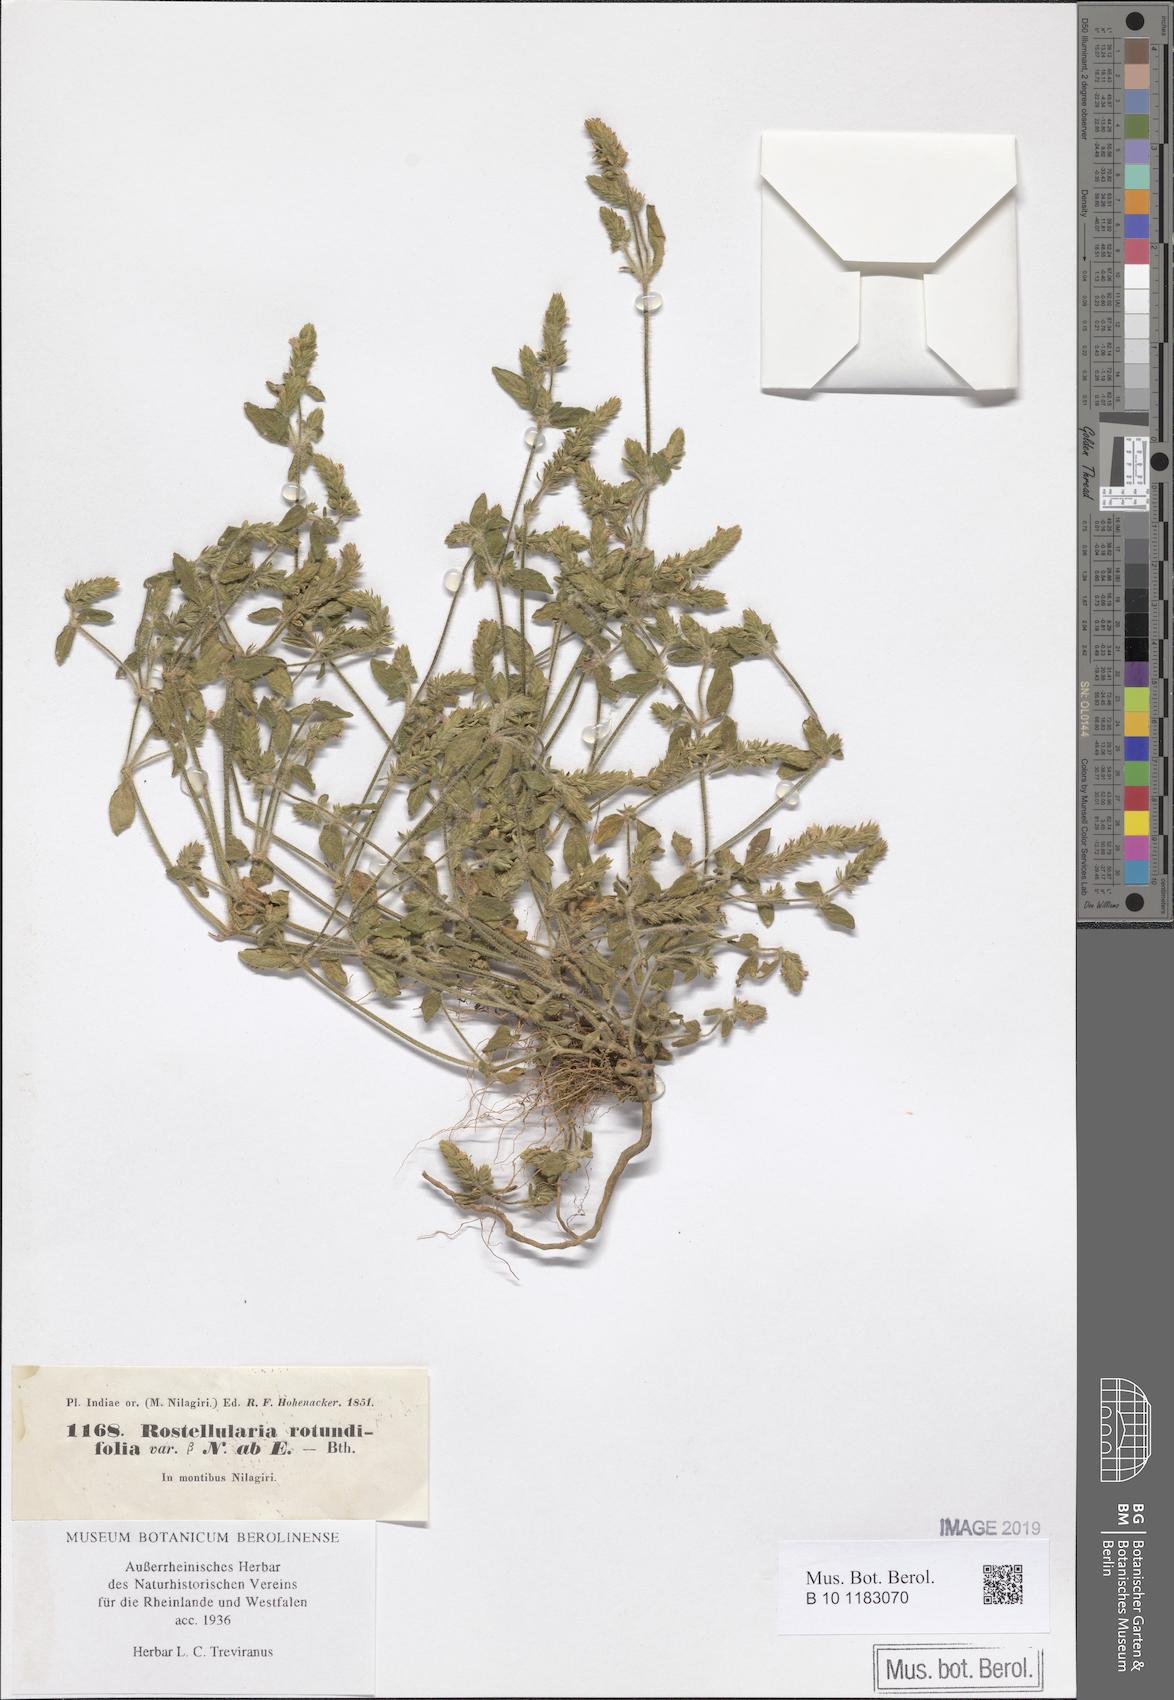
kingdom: Plantae
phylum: Tracheophyta
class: Magnoliopsida
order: Lamiales
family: Acanthaceae
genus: Rostellularia
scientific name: Rostellularia diffusa
